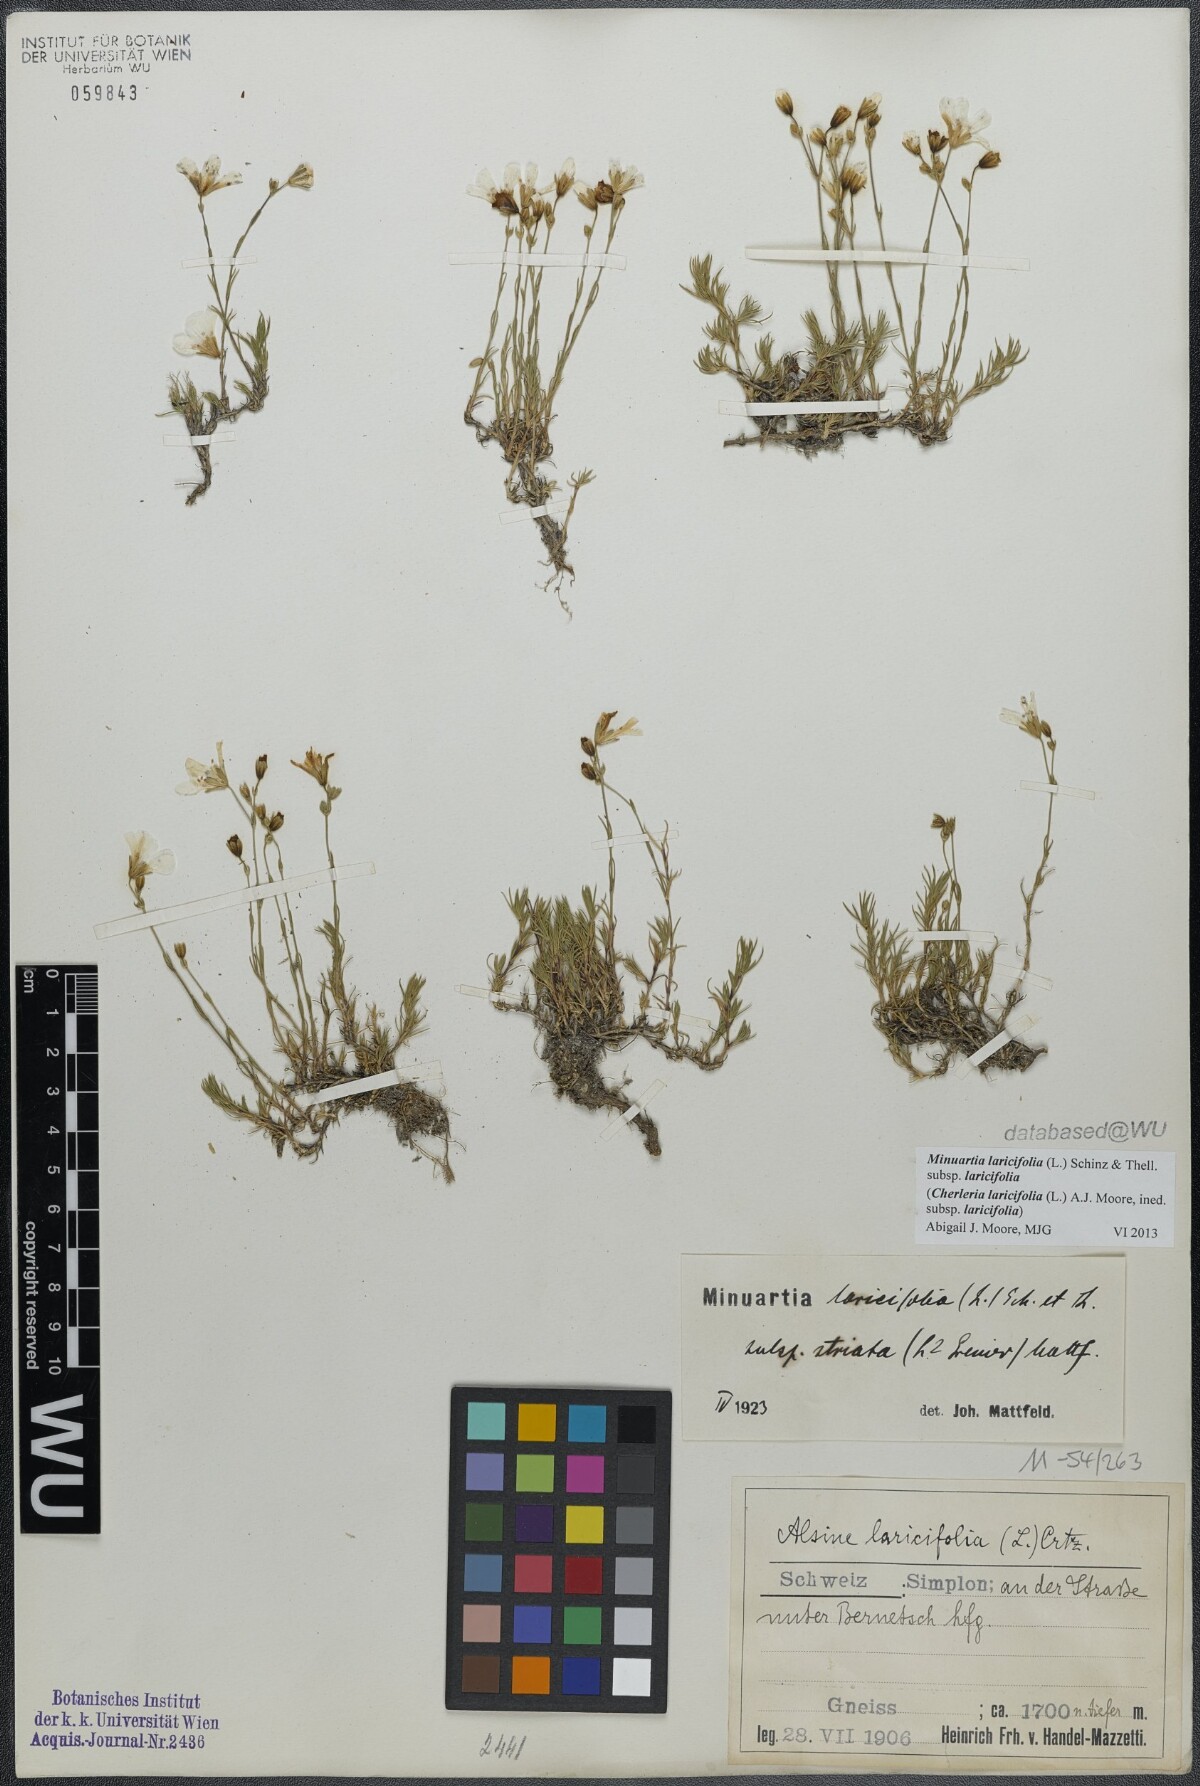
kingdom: Plantae
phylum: Tracheophyta
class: Magnoliopsida
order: Caryophyllales
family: Caryophyllaceae
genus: Cherleria
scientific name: Cherleria laricifolia
